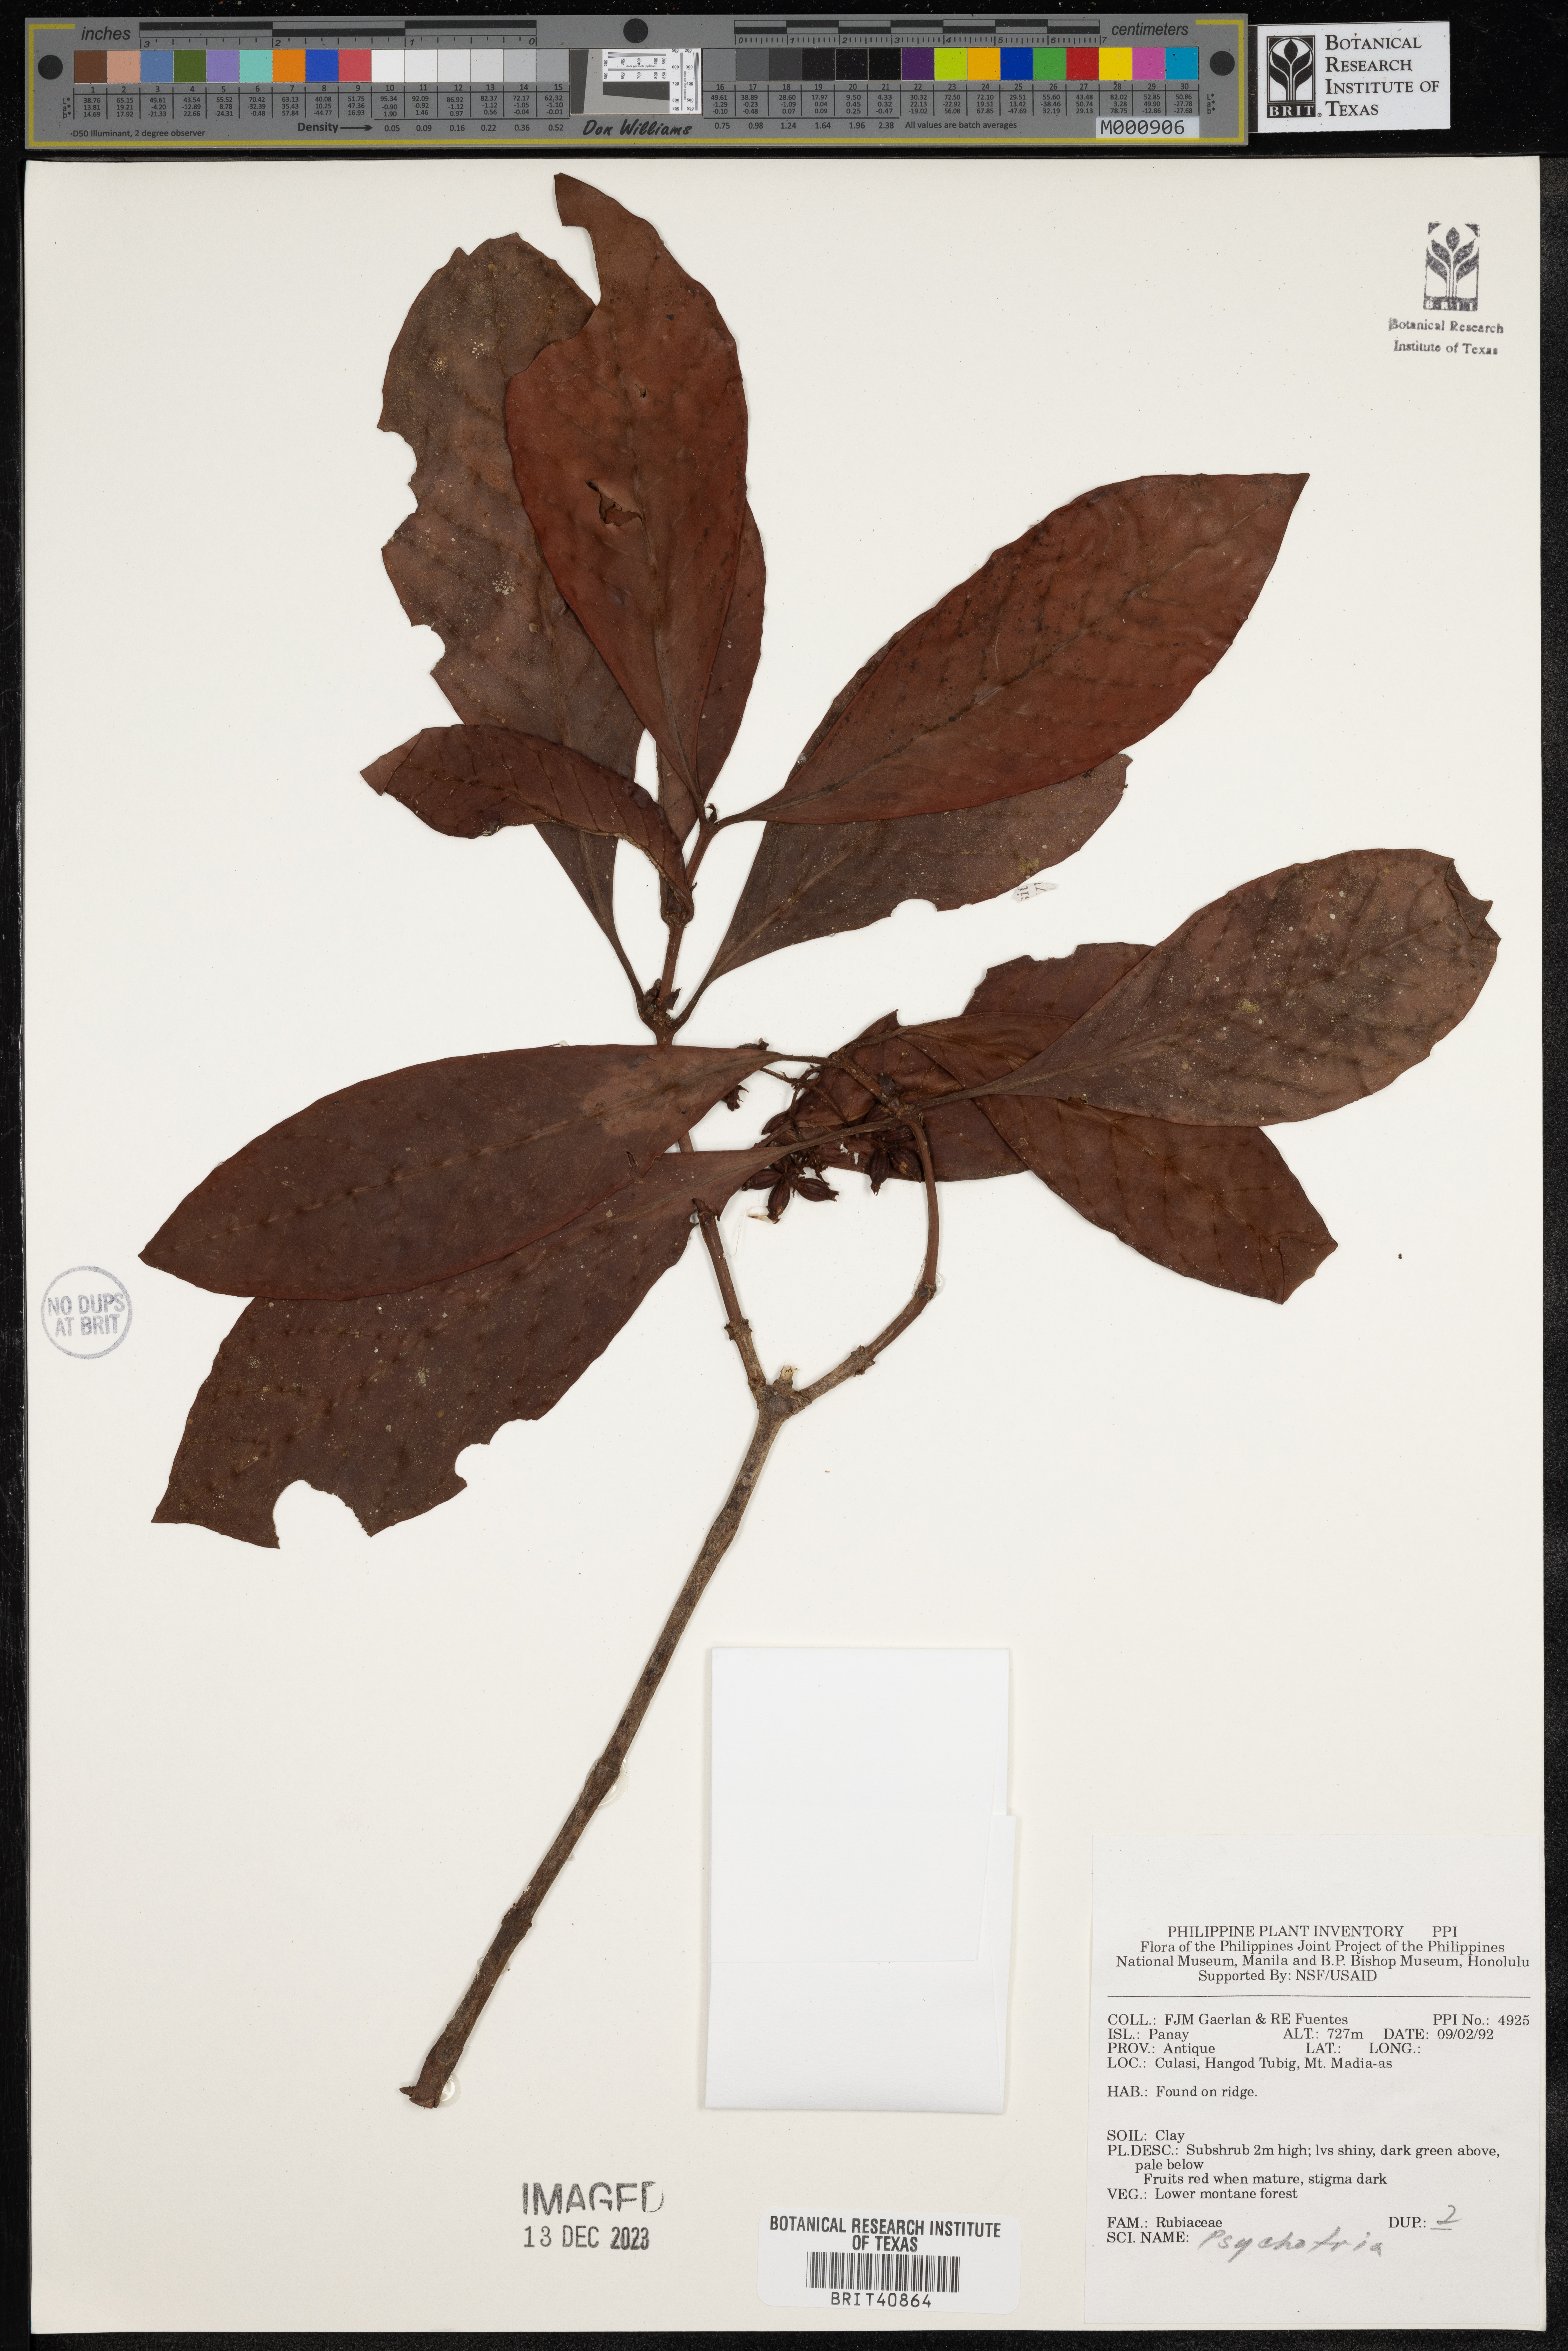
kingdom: Plantae
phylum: Tracheophyta
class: Magnoliopsida
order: Gentianales
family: Rubiaceae
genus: Psychotria
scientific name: Psychotria
